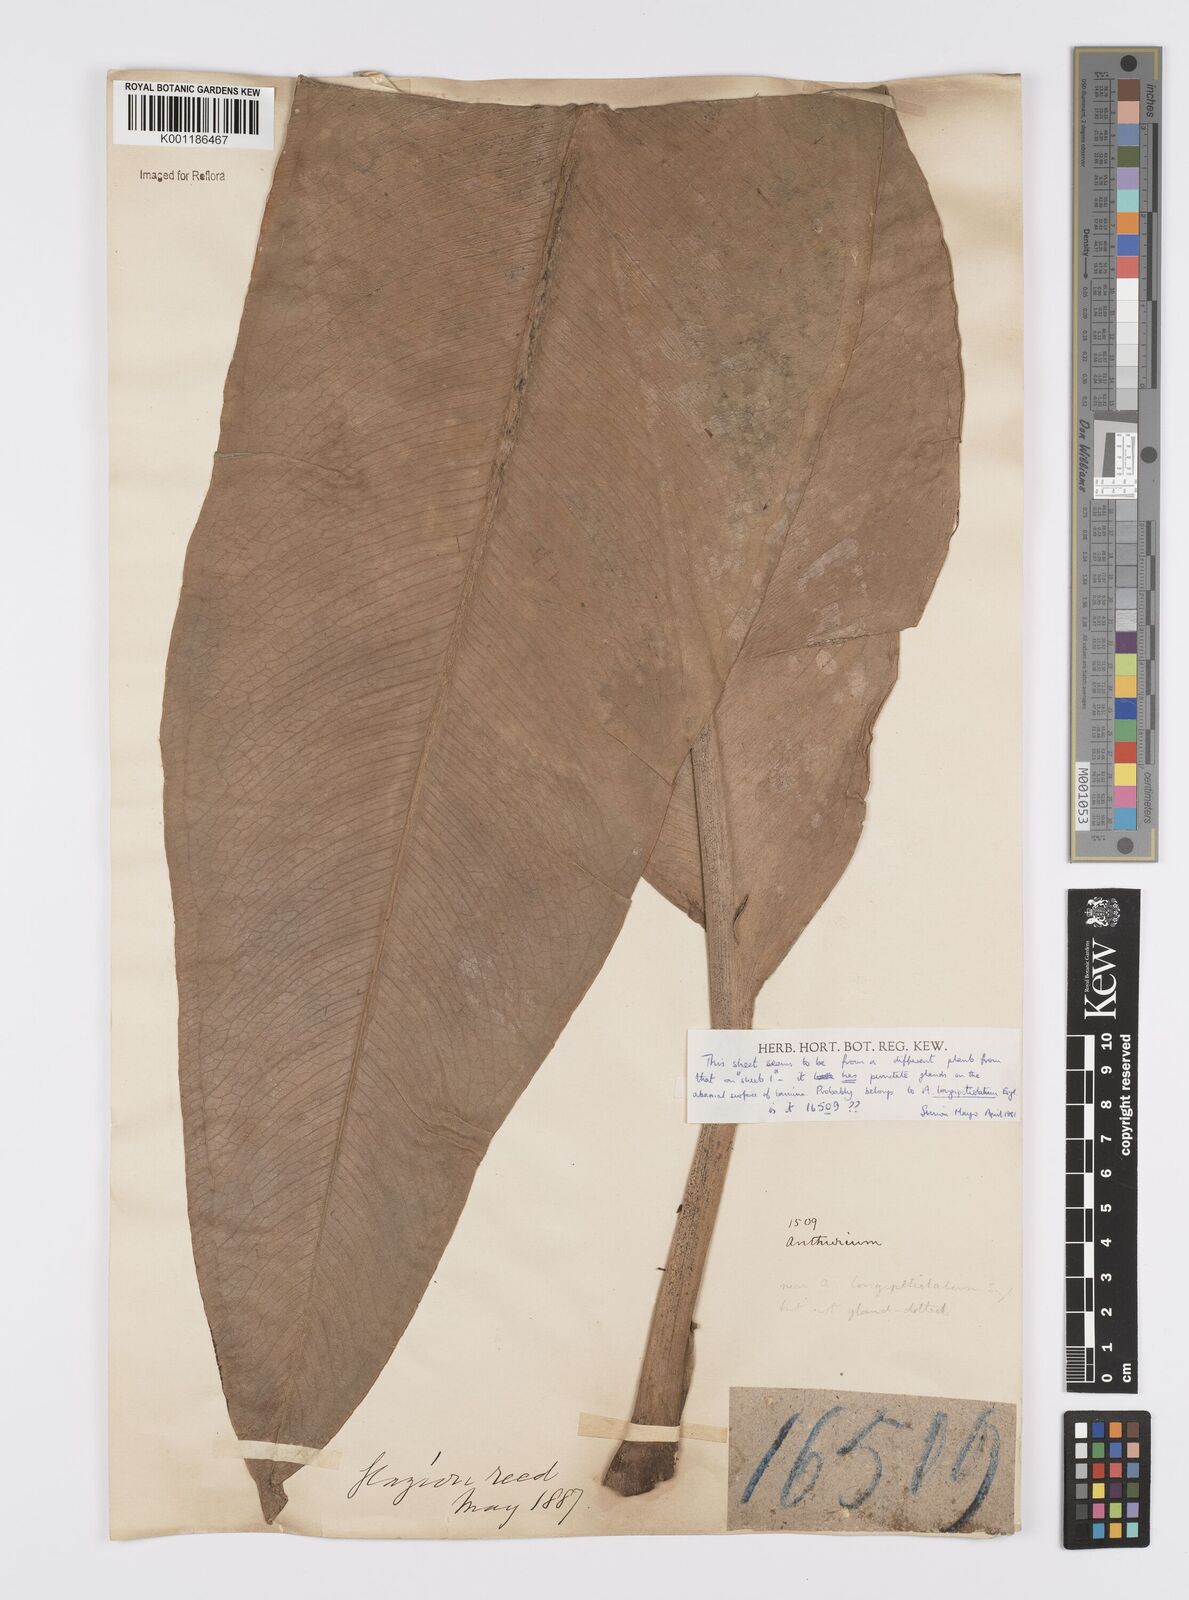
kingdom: Plantae
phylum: Tracheophyta
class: Liliopsida
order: Alismatales
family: Araceae
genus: Anthurium
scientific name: Anthurium coriaceum
